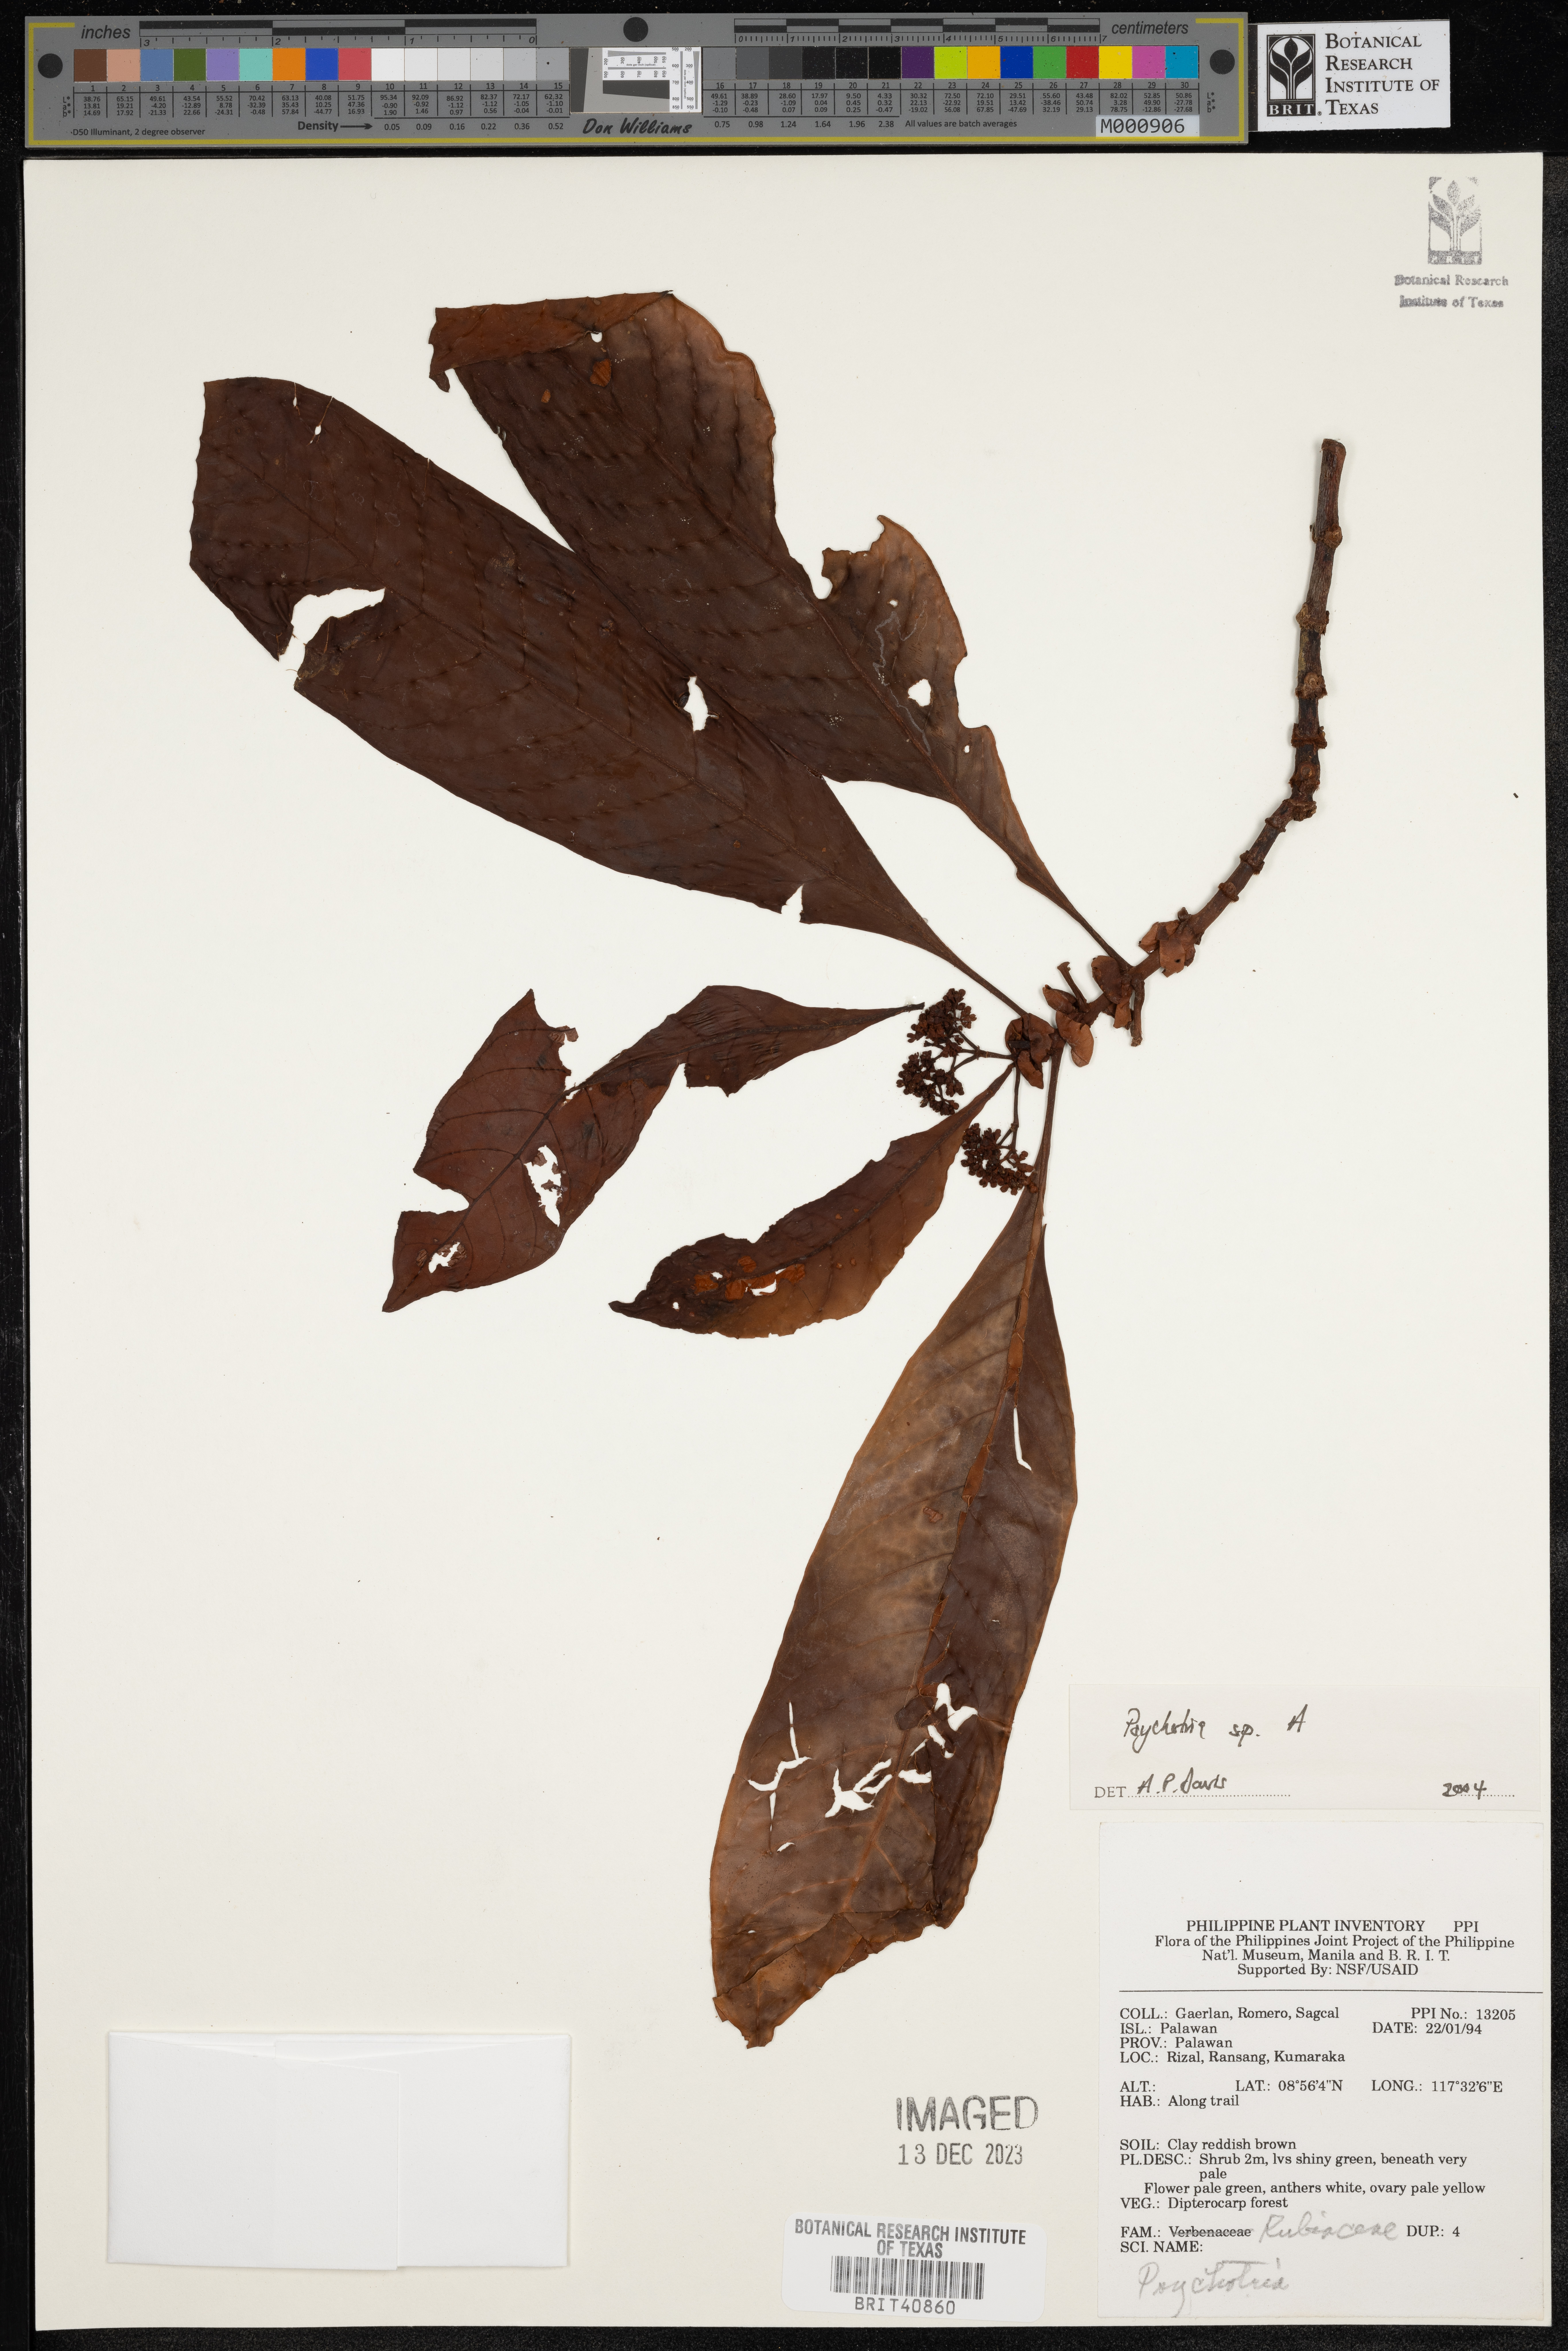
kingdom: Plantae
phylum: Tracheophyta
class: Magnoliopsida
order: Gentianales
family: Rubiaceae
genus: Psychotria
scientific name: Psychotria
